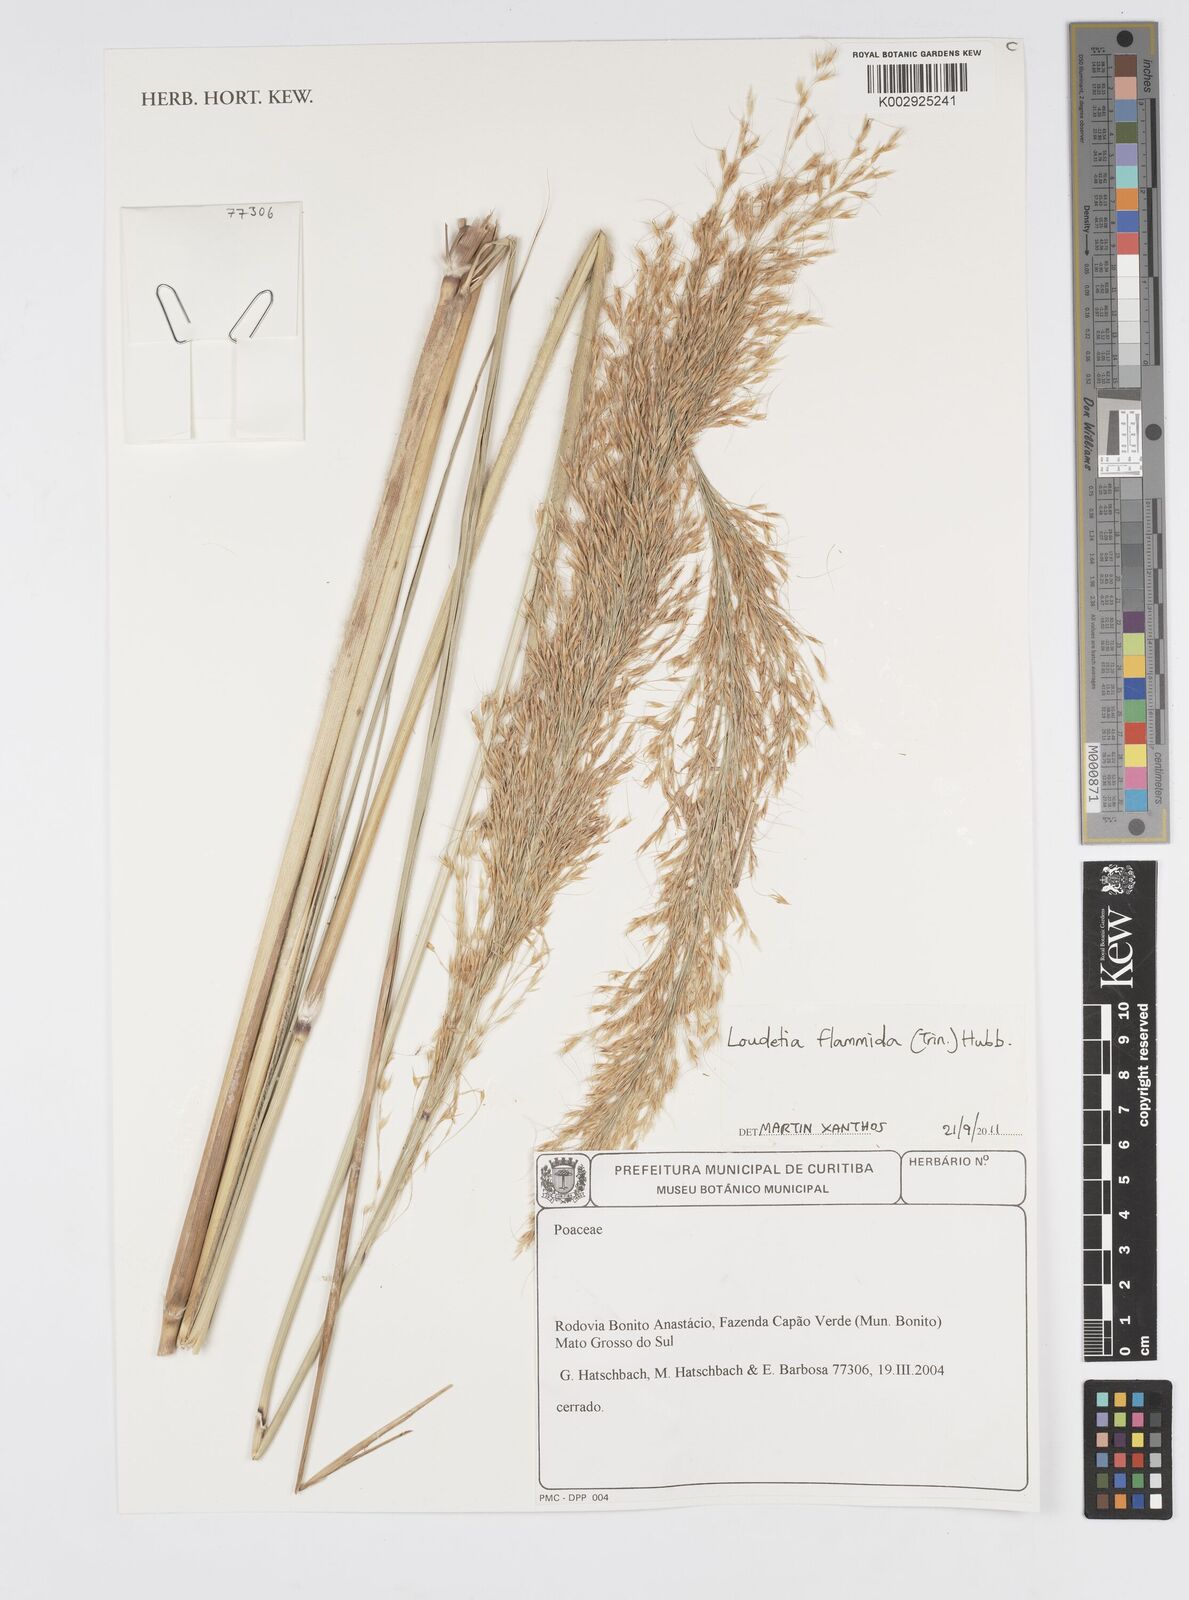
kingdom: Plantae
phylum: Tracheophyta
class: Liliopsida
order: Poales
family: Poaceae
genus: Loudetia
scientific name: Loudetia flammida
